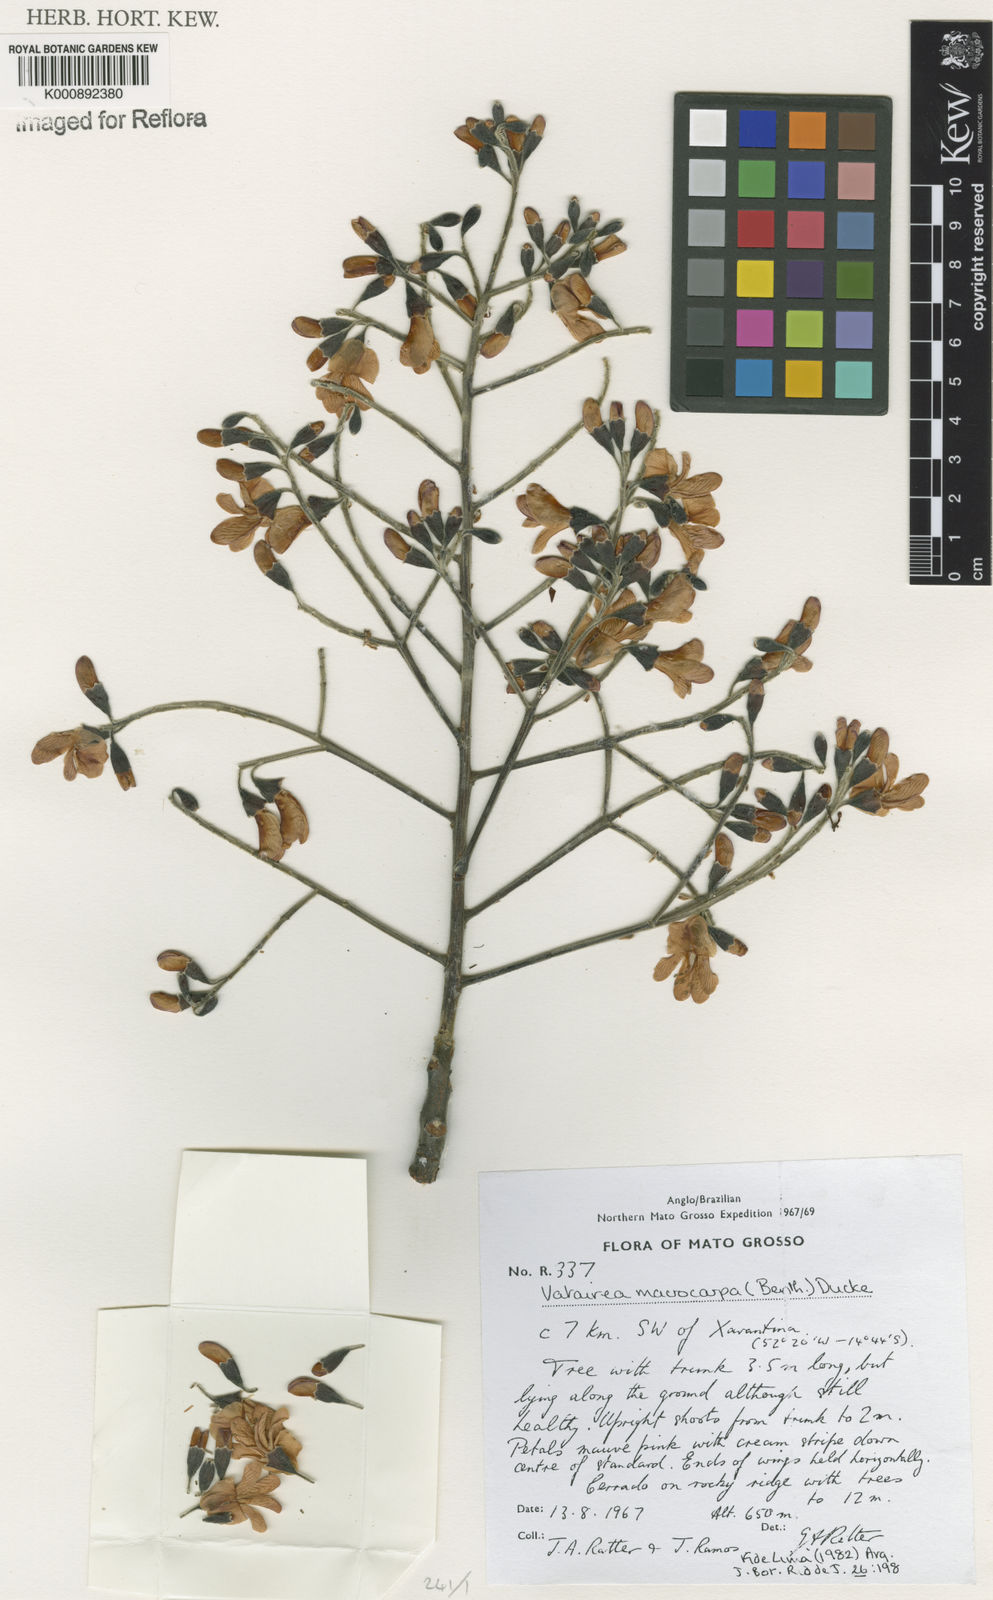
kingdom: Plantae
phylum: Tracheophyta
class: Magnoliopsida
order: Fabales
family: Fabaceae
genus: Vatairea
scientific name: Vatairea macrocarpa
